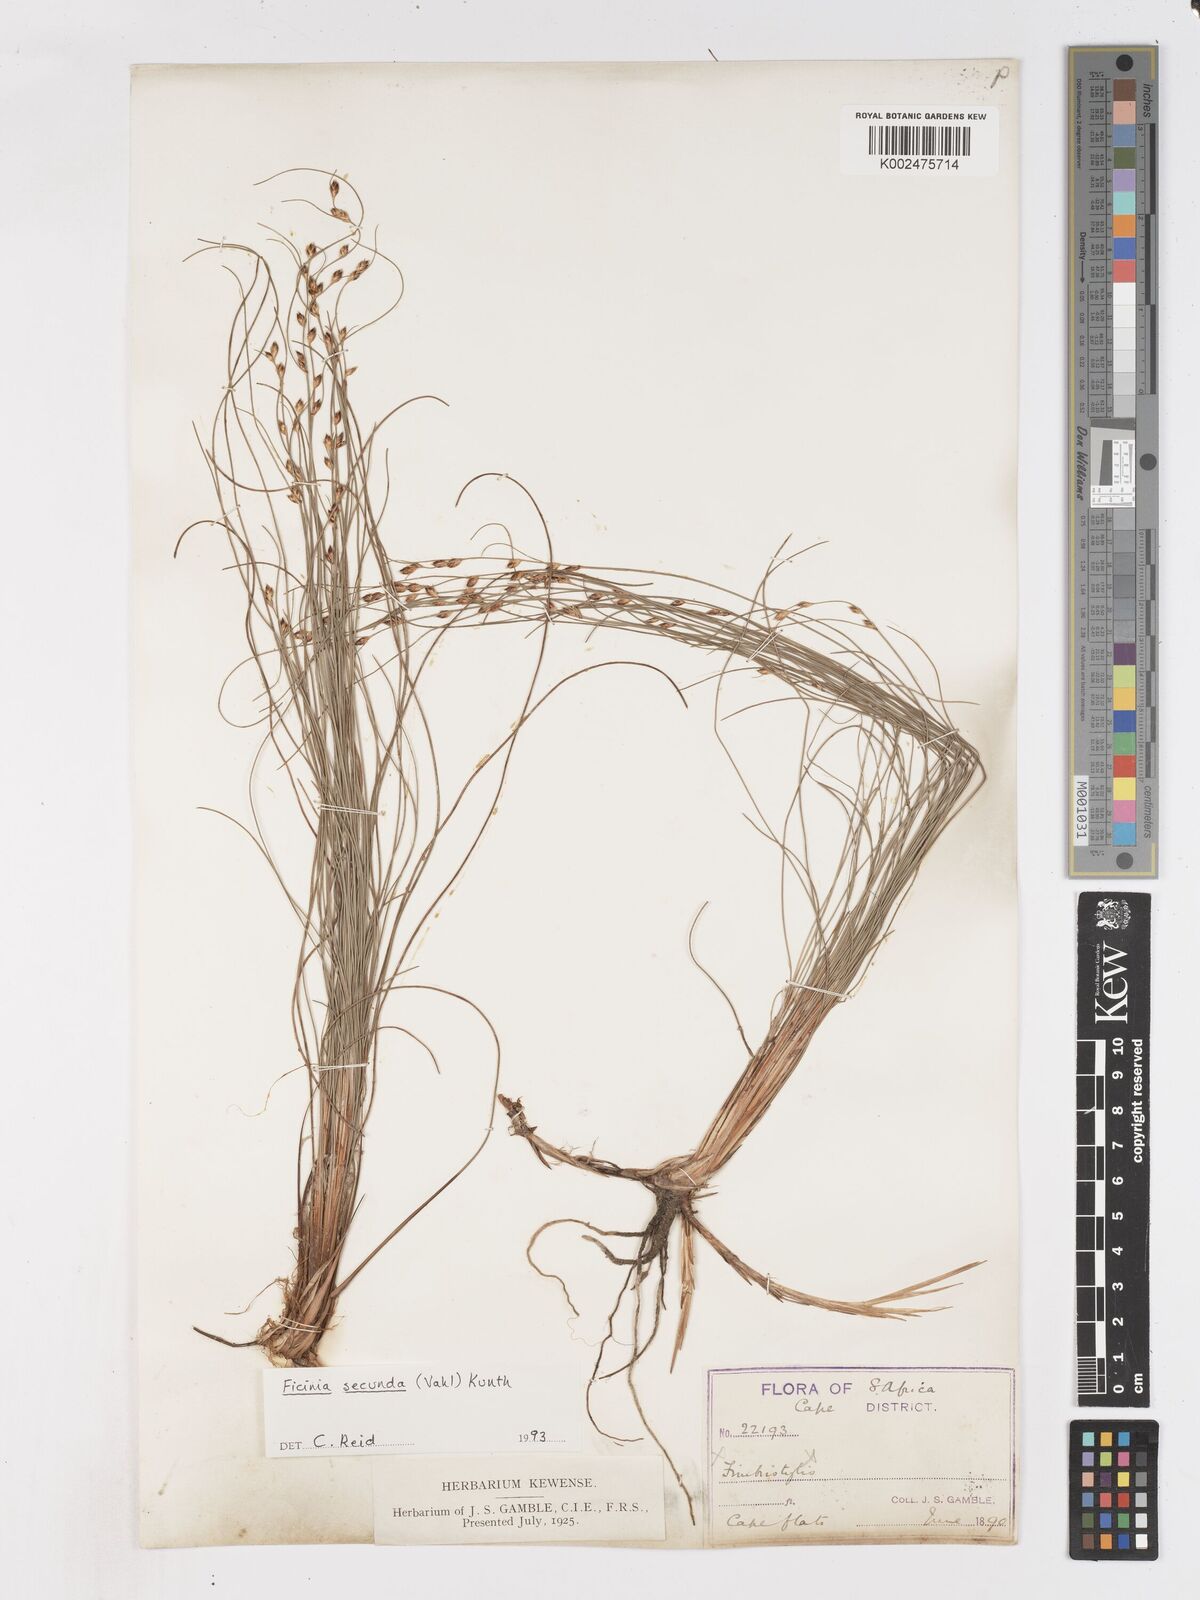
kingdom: Plantae
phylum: Tracheophyta
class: Liliopsida
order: Poales
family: Cyperaceae
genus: Ficinia
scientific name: Ficinia secunda
